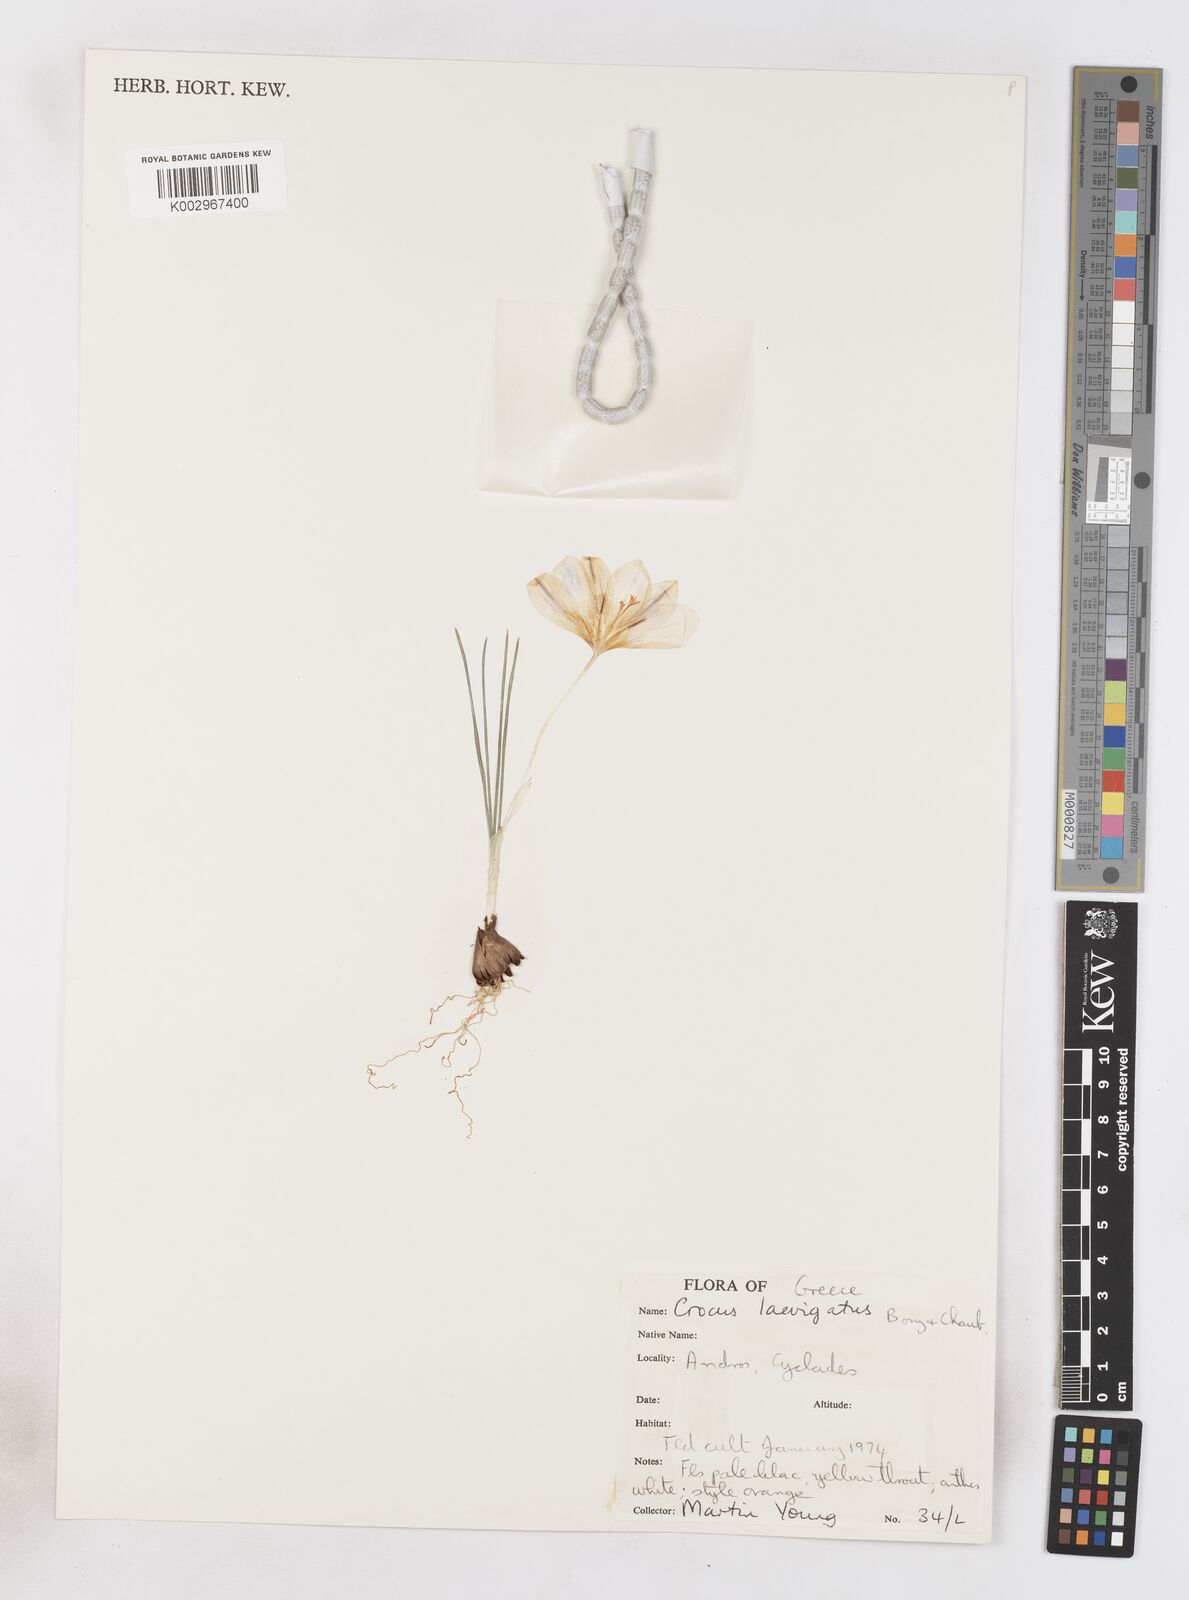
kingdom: Plantae
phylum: Tracheophyta
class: Liliopsida
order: Asparagales
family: Iridaceae
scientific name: Iridaceae
